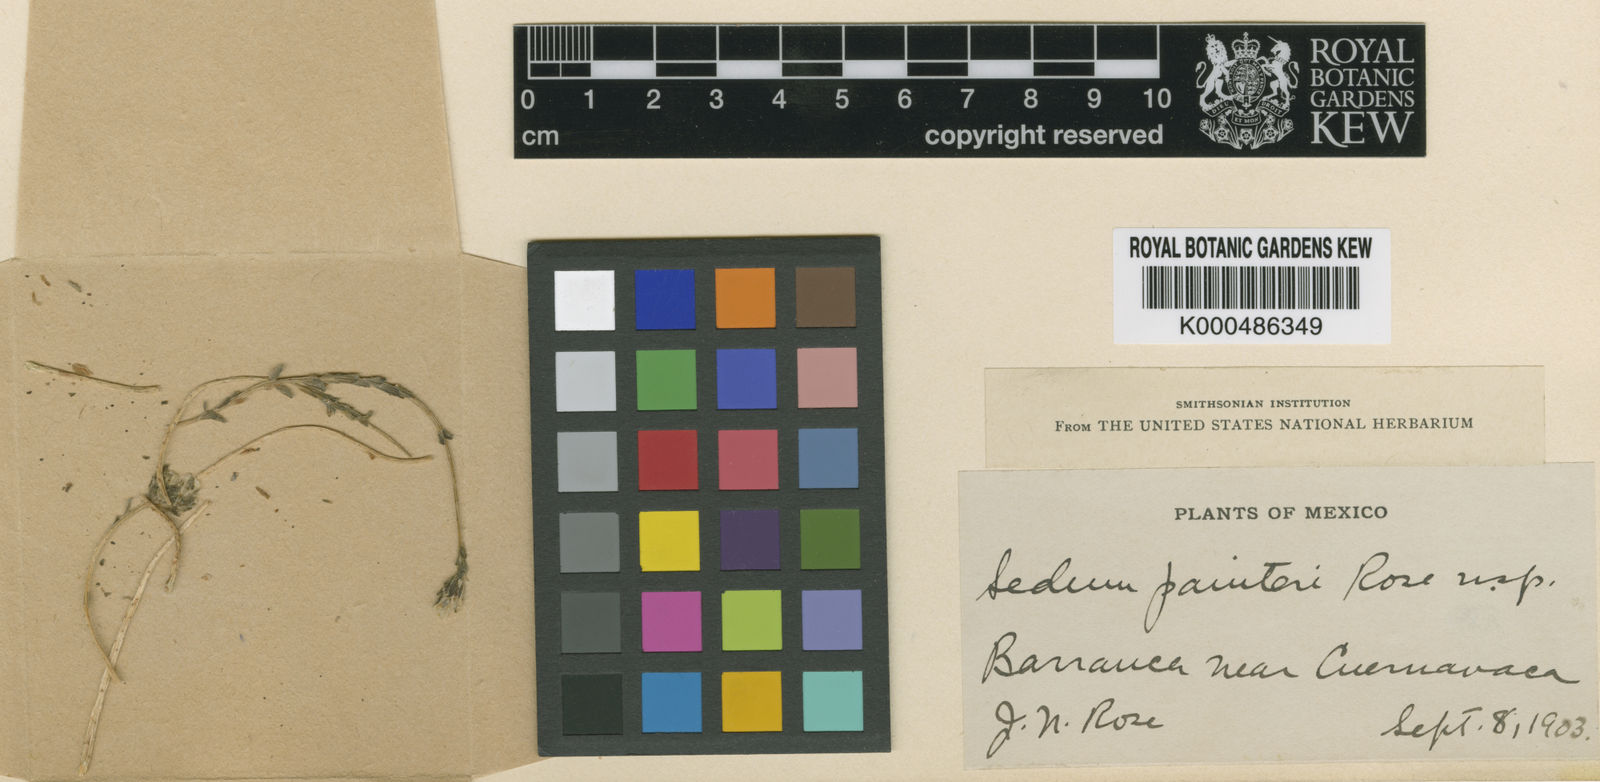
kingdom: Plantae
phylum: Tracheophyta
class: Magnoliopsida
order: Saxifragales
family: Crassulaceae
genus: Sedum
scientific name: Sedum hemsleyanum
